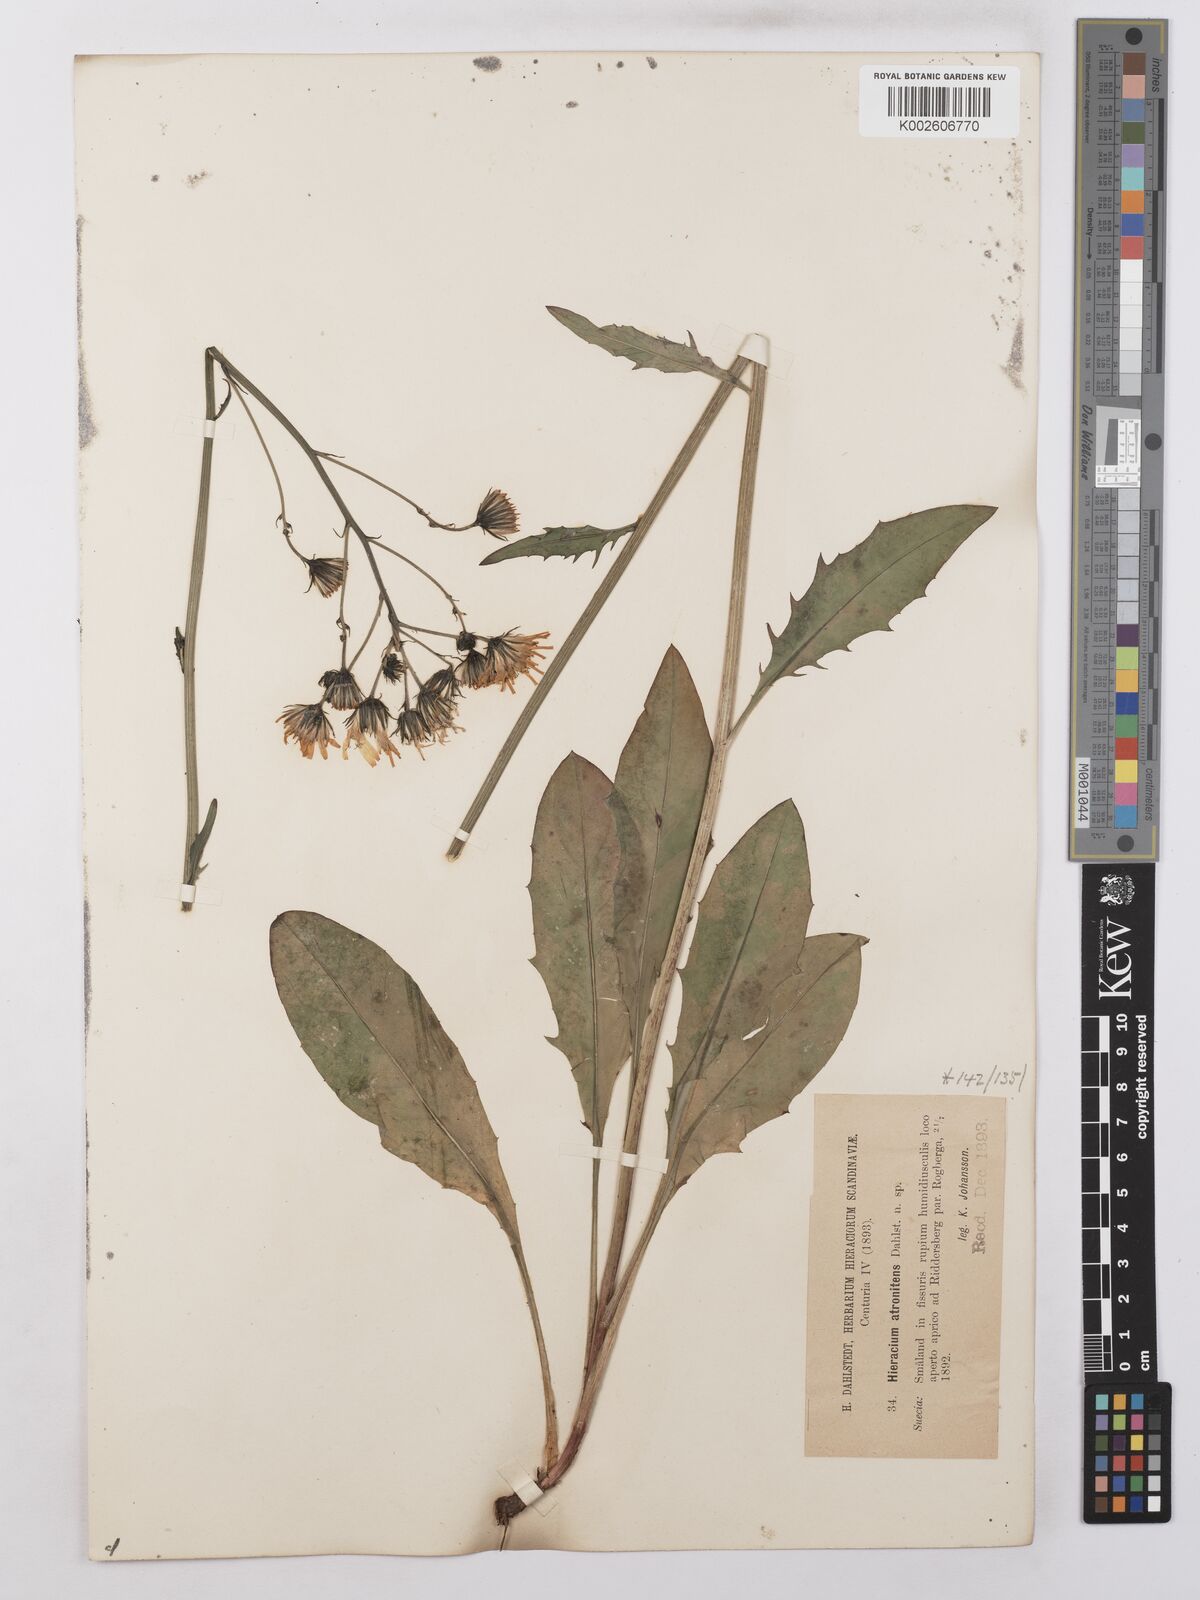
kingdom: Plantae
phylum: Tracheophyta
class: Magnoliopsida
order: Asterales
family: Asteraceae
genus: Hieracium
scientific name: Hieracium lachenalii
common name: Common hawkweed
